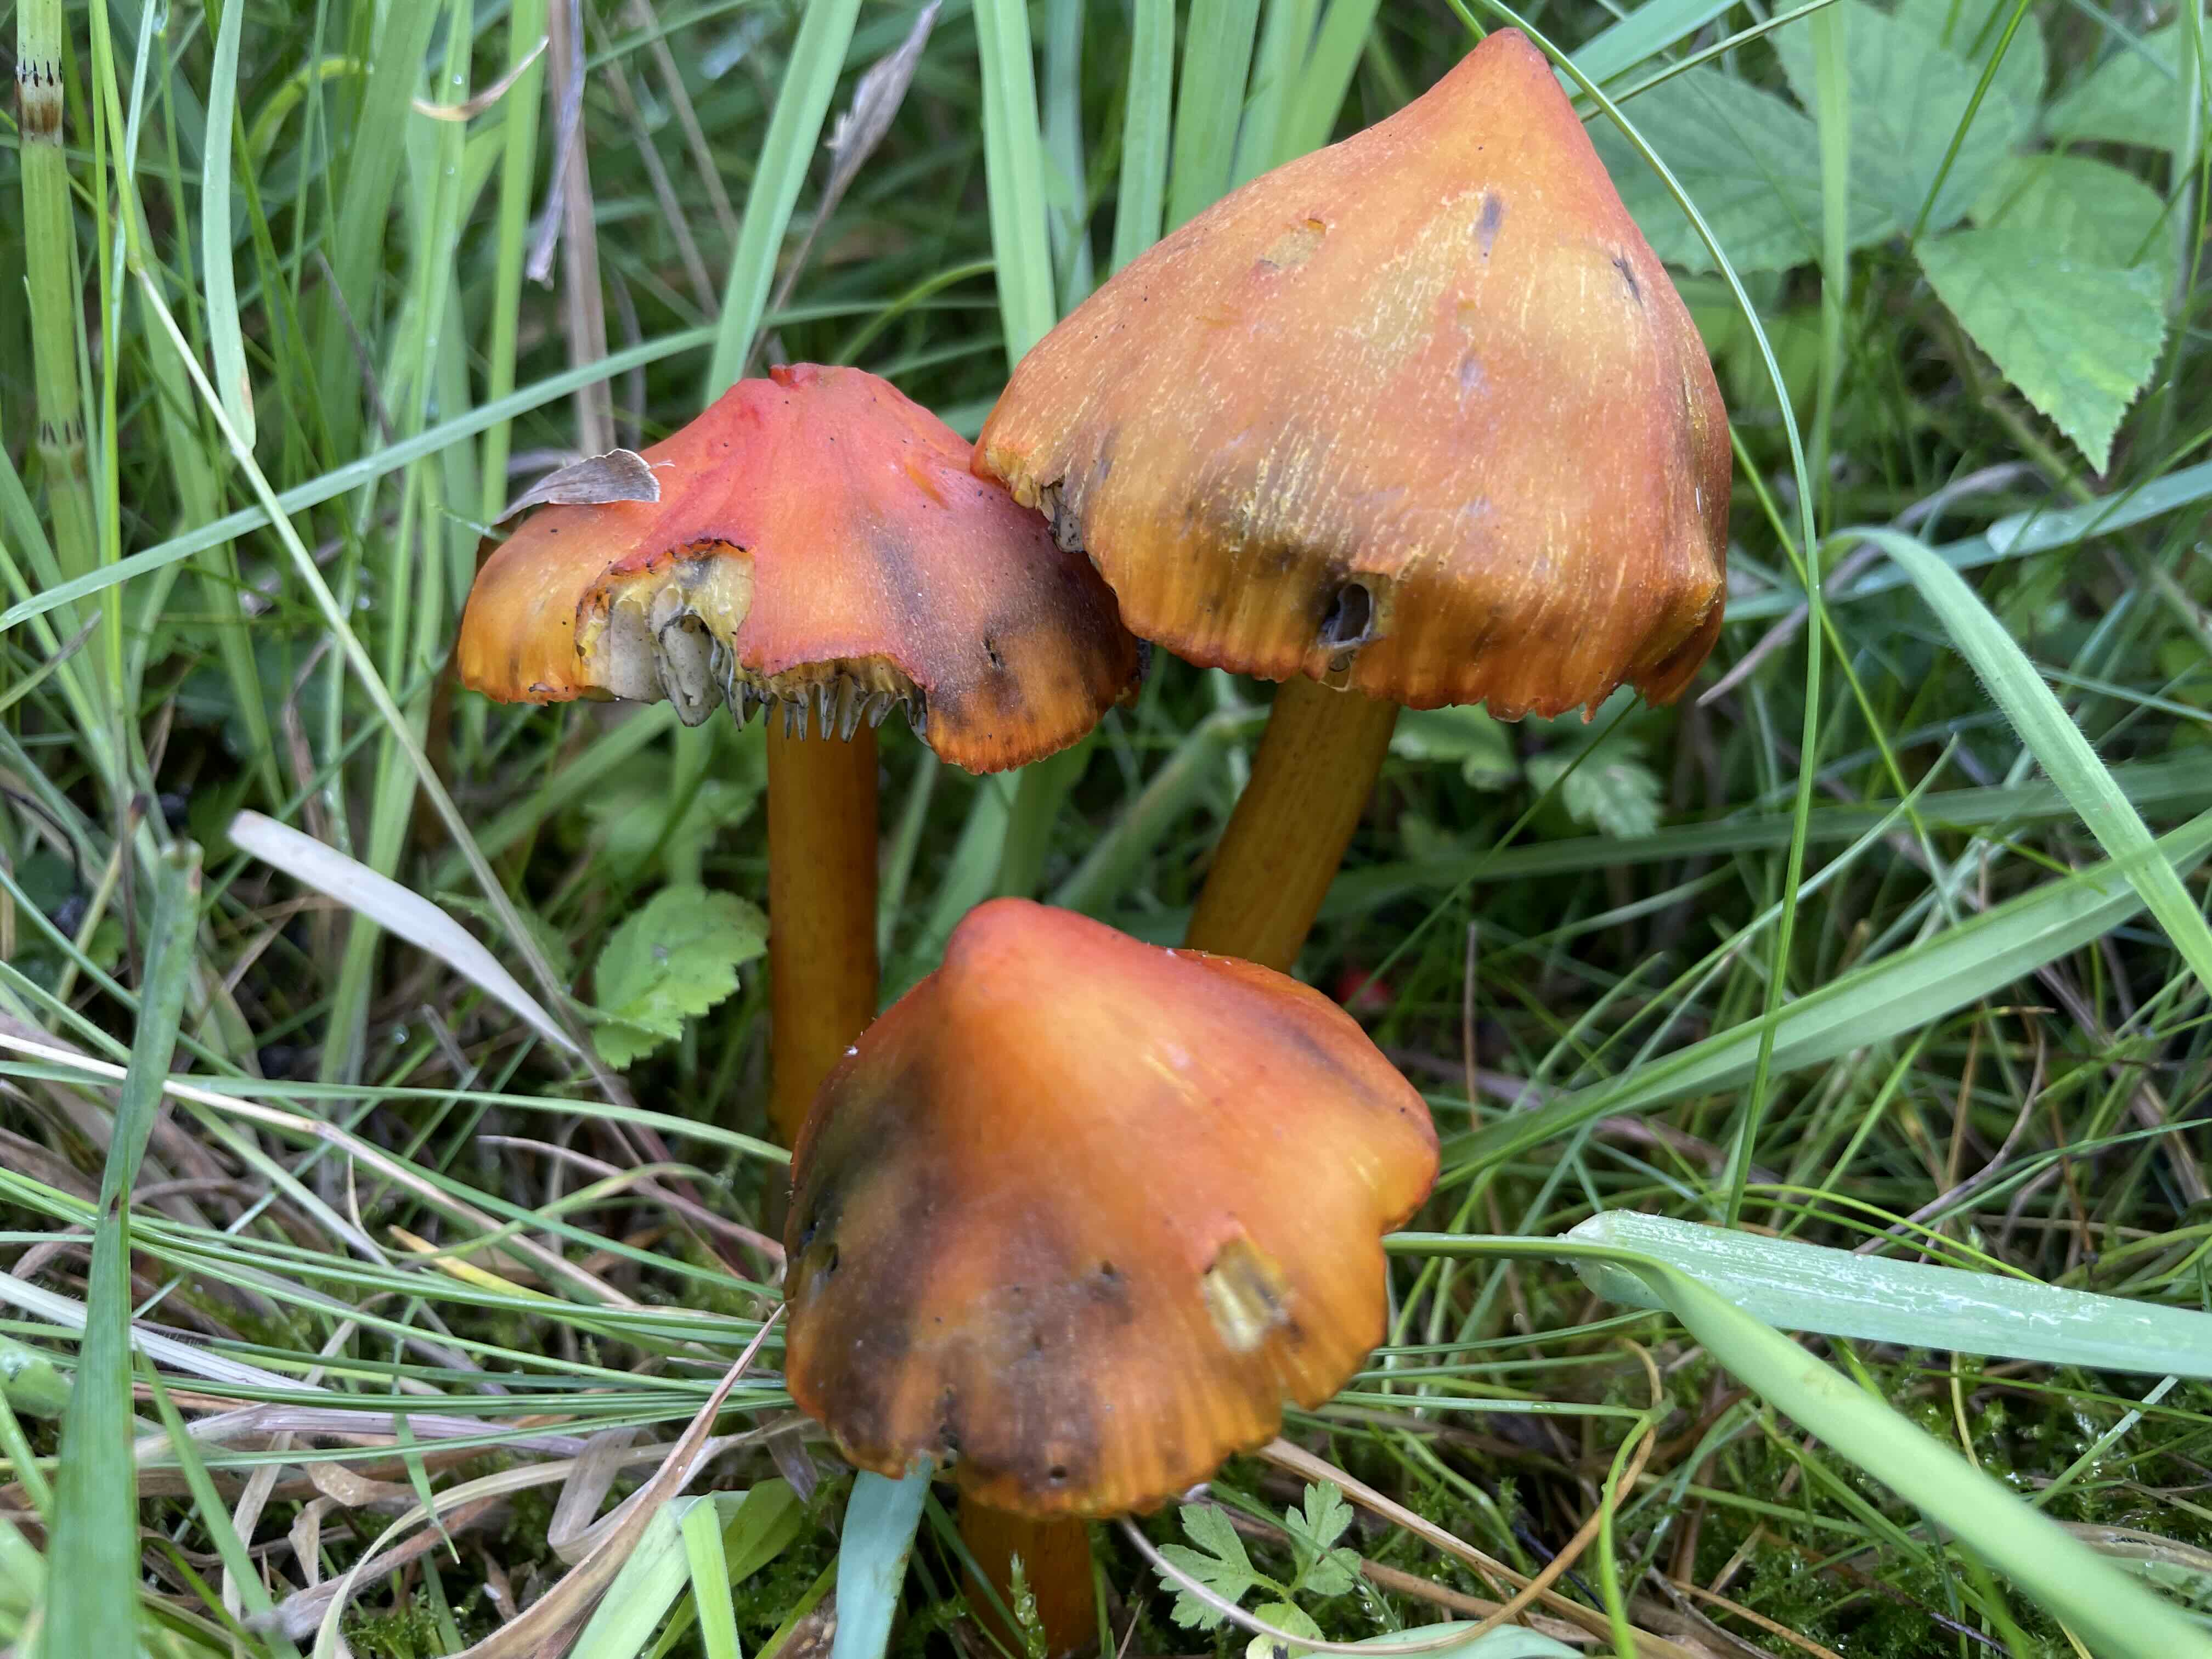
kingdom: Fungi
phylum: Basidiomycota
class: Agaricomycetes
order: Agaricales
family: Hygrophoraceae
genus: Hygrocybe
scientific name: Hygrocybe conica
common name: kegle-vokshat
